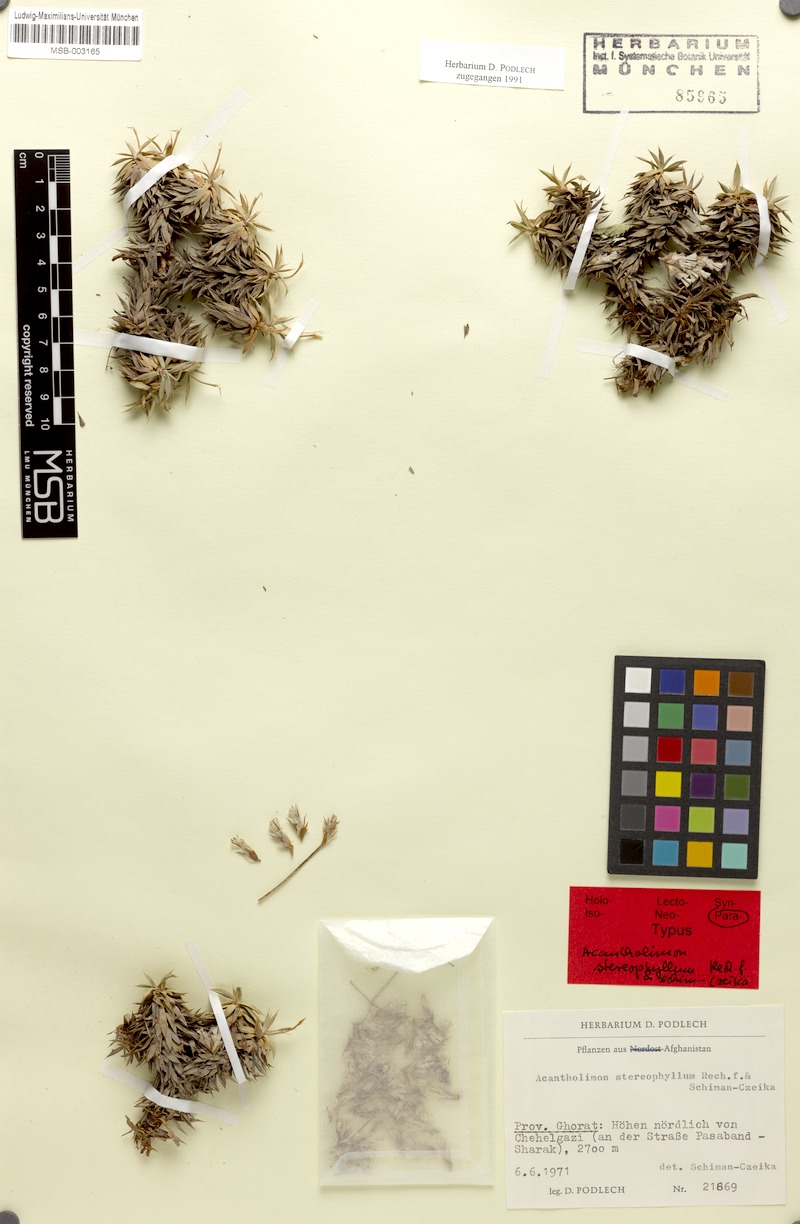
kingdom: Plantae
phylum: Tracheophyta
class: Magnoliopsida
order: Caryophyllales
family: Plumbaginaceae
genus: Acantholimon
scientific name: Acantholimon stereophyllum
